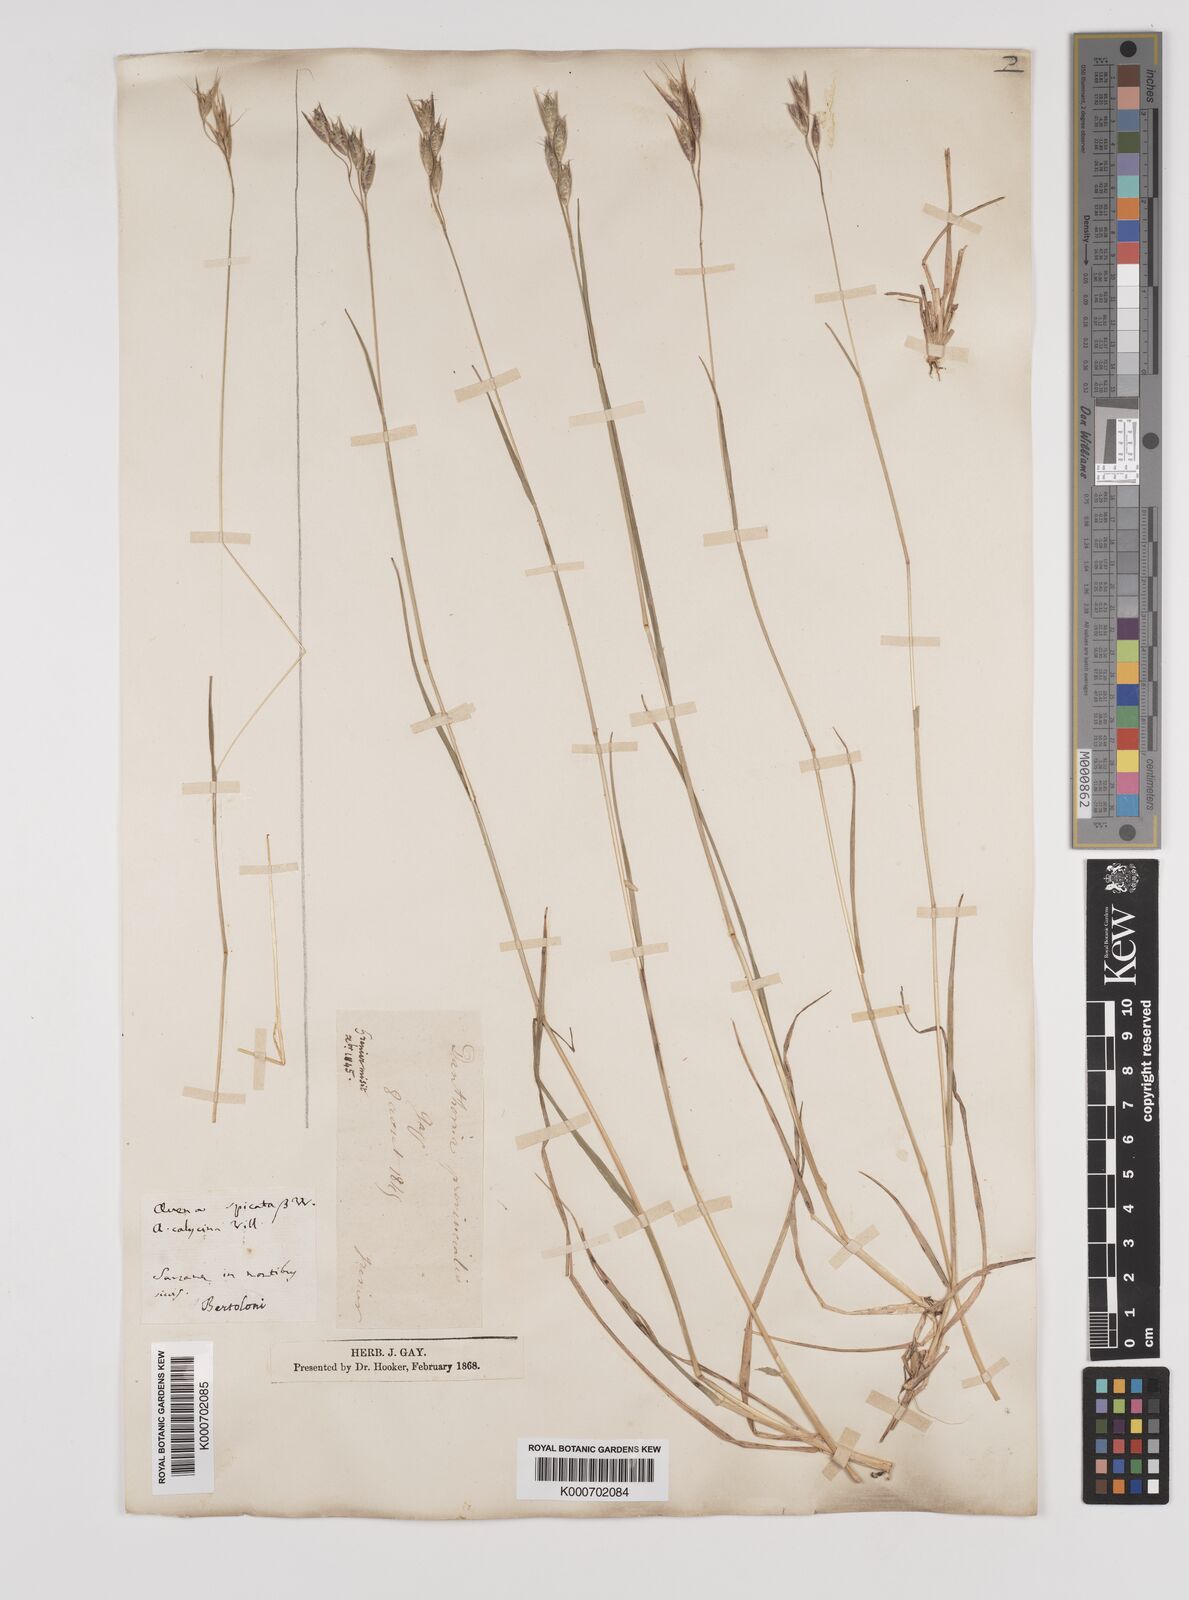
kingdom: Plantae
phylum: Tracheophyta
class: Liliopsida
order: Poales
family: Poaceae
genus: Danthonia
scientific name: Danthonia alpina
